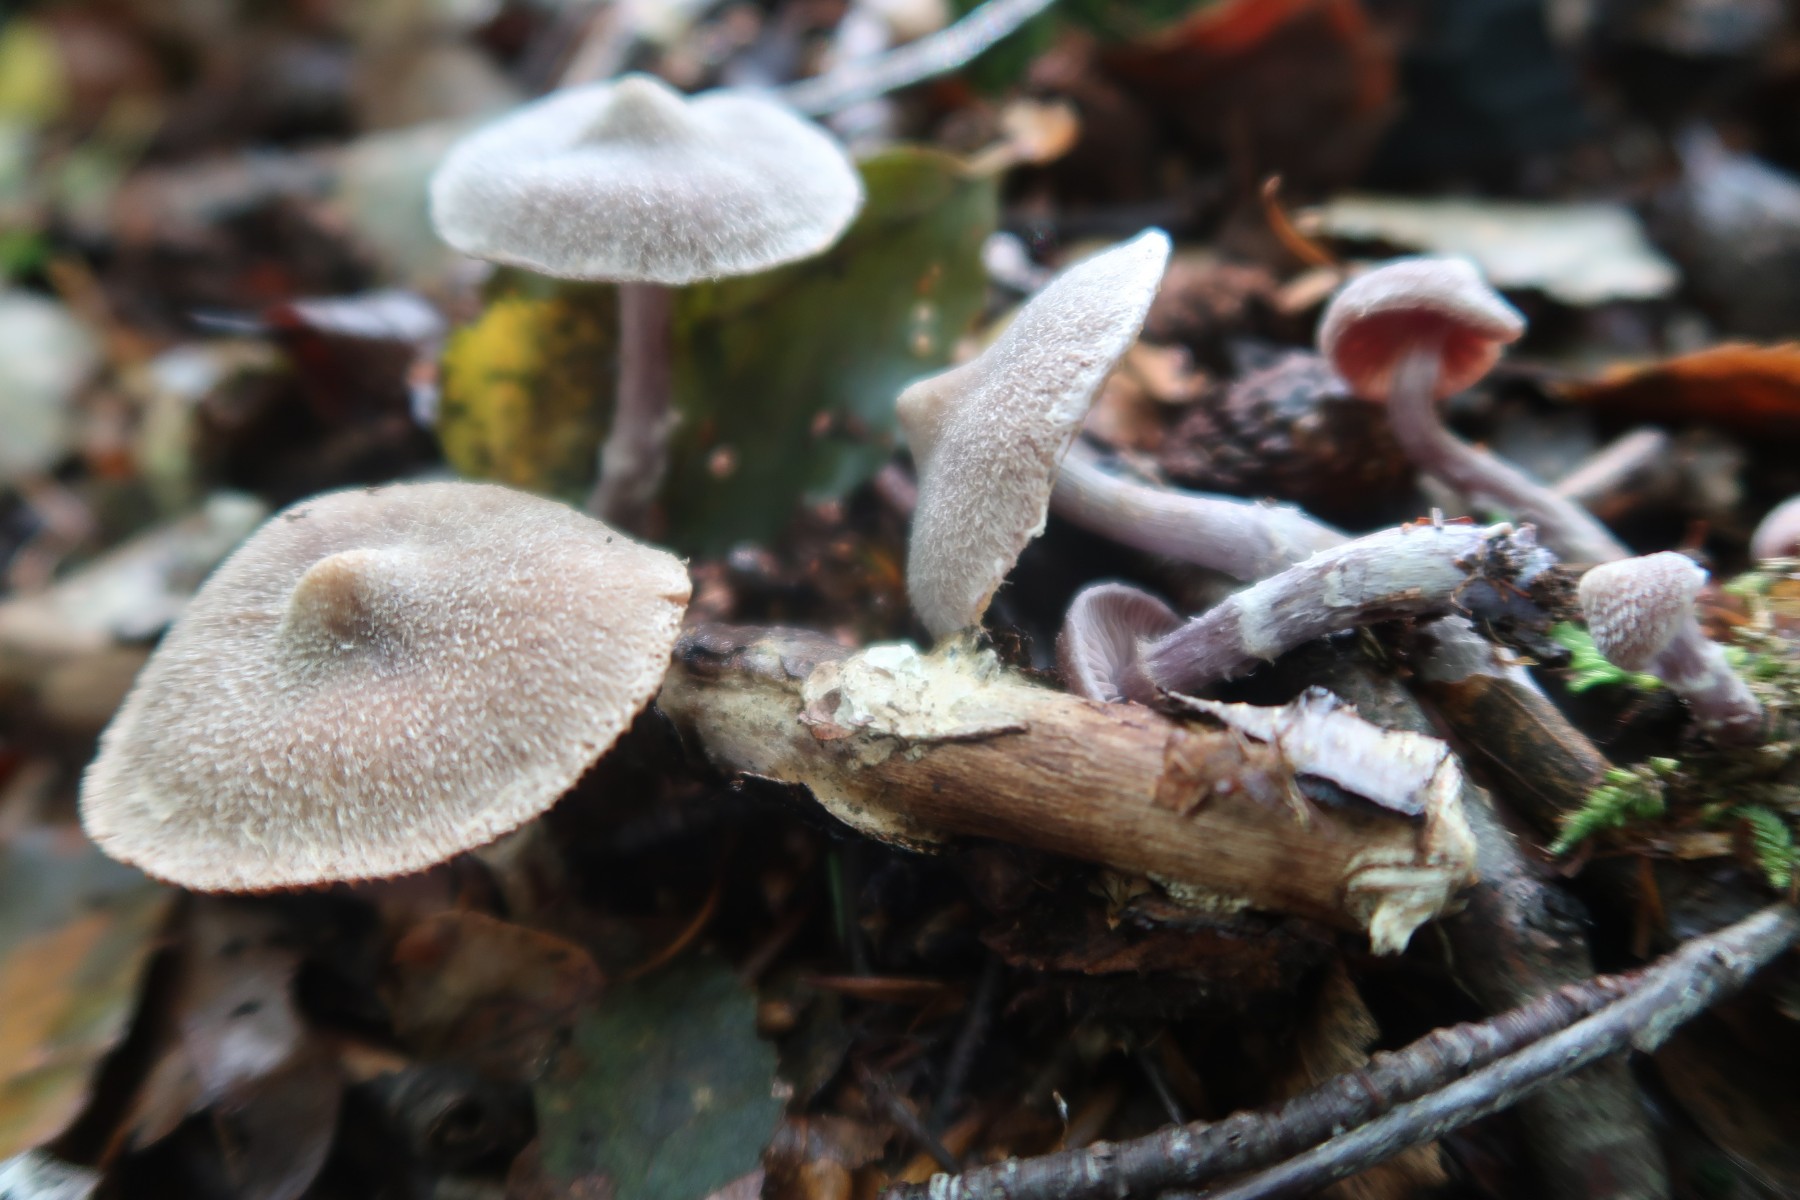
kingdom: Fungi
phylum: Basidiomycota
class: Agaricomycetes
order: Agaricales
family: Cortinariaceae
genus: Cortinarius
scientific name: Cortinarius
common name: pelargonie-slørhat
